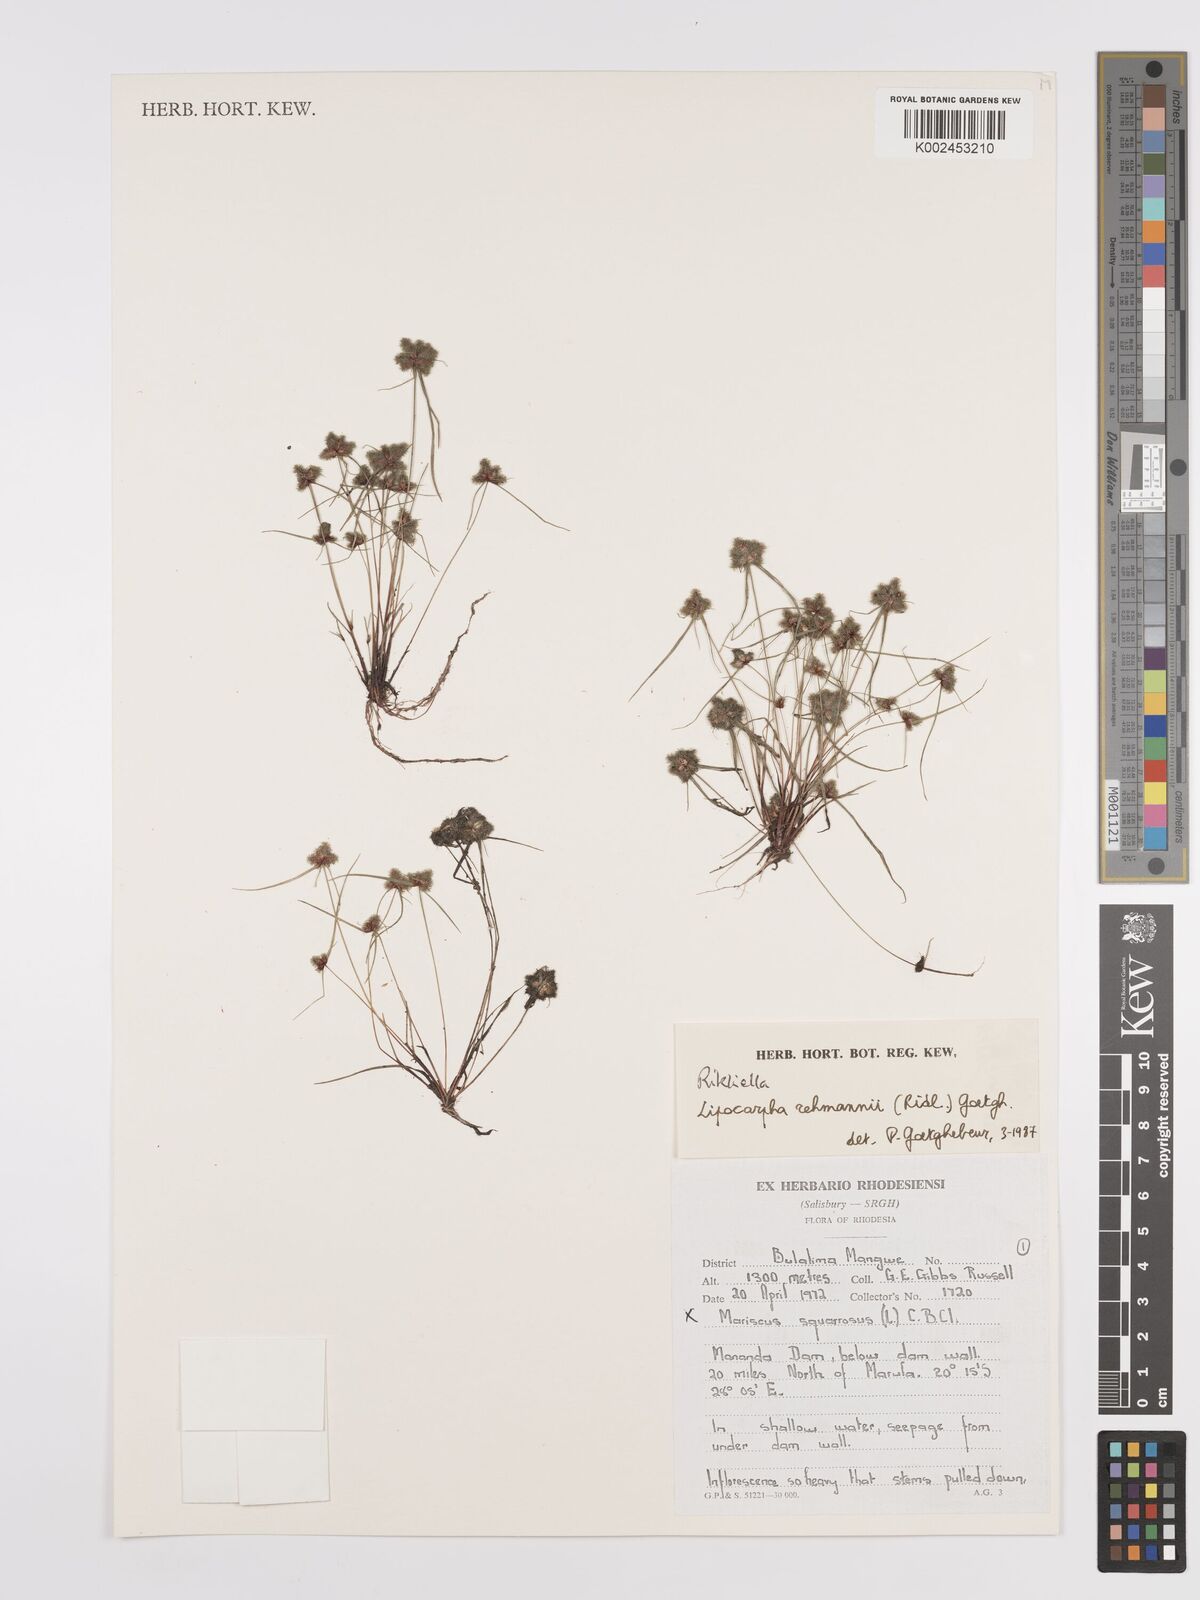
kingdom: Plantae
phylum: Tracheophyta
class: Liliopsida
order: Poales
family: Cyperaceae
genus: Cyperus
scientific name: Cyperus sanguinolentus
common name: Purpleglume flatsedge
